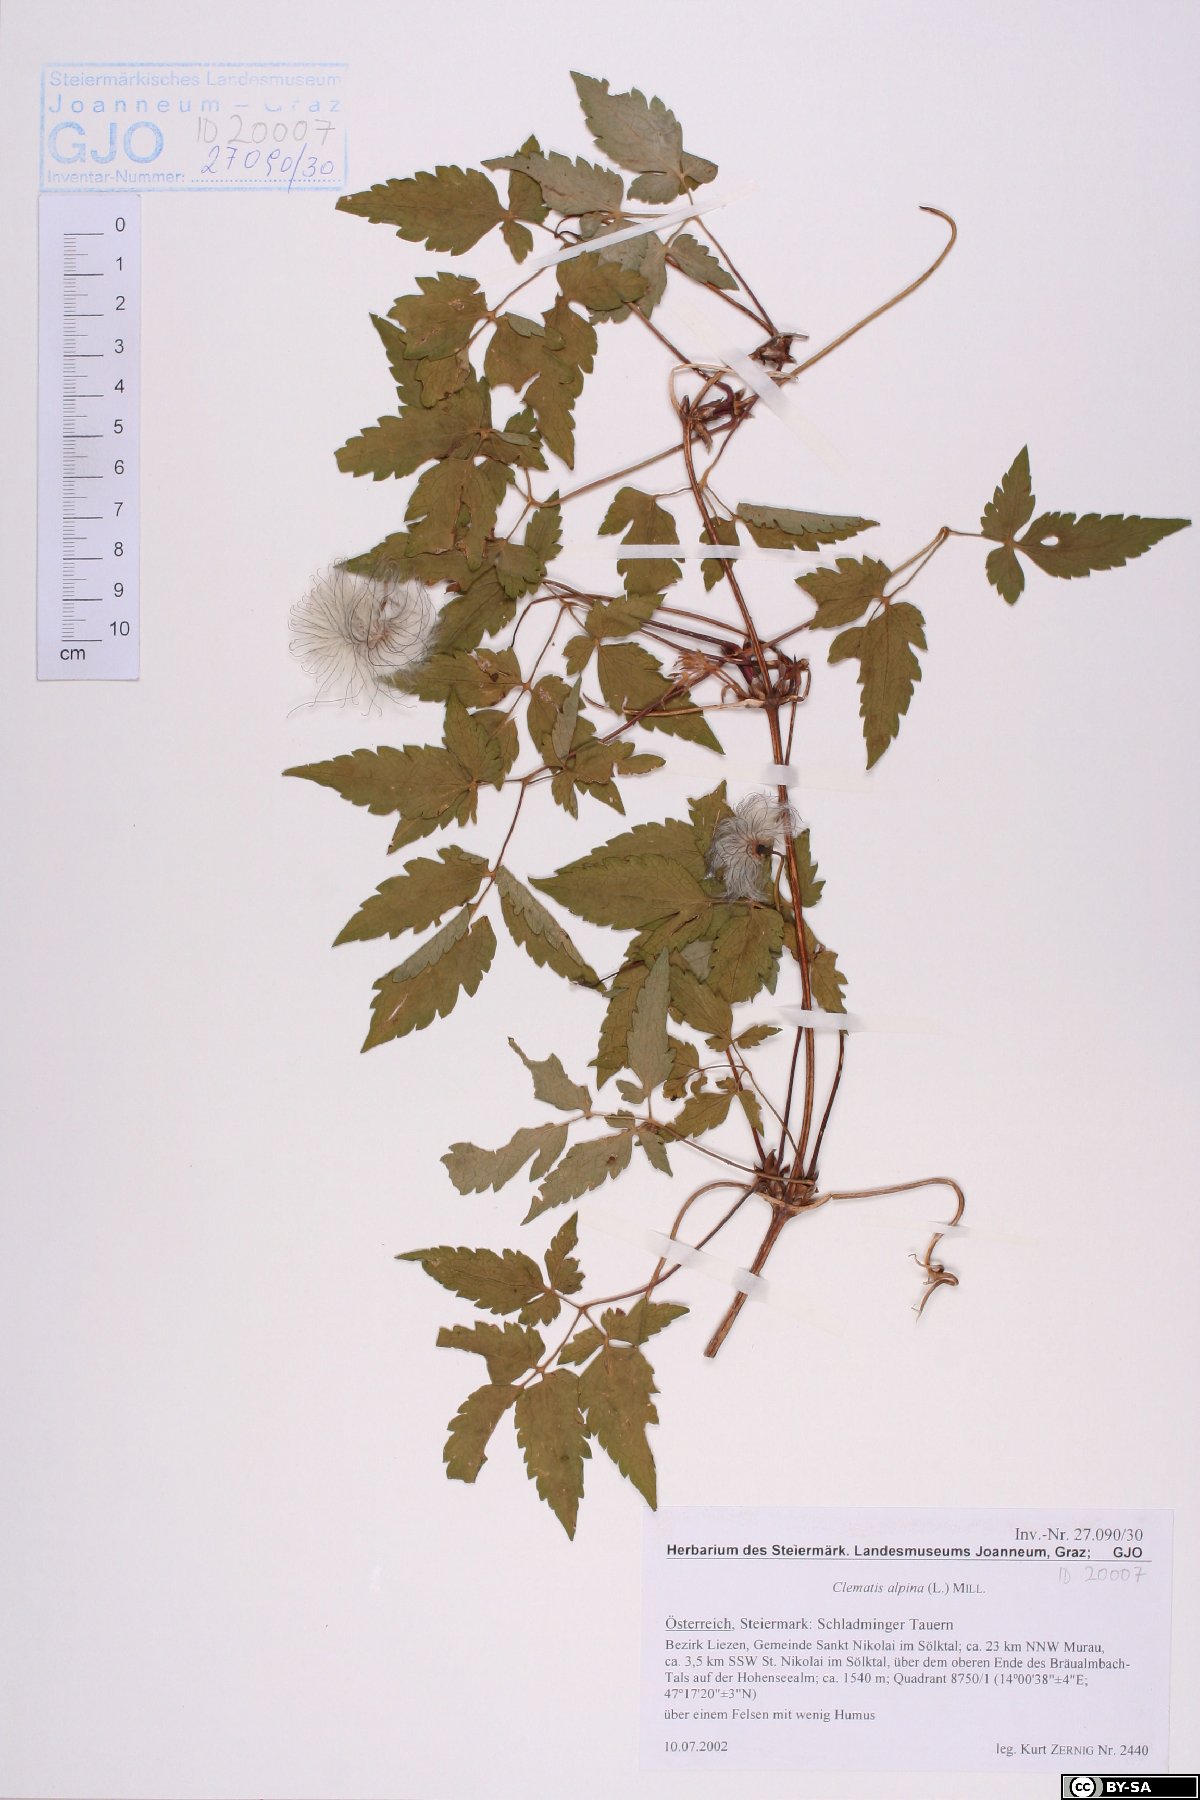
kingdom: Plantae
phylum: Tracheophyta
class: Magnoliopsida
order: Ranunculales
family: Ranunculaceae
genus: Clematis
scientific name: Clematis alpina
